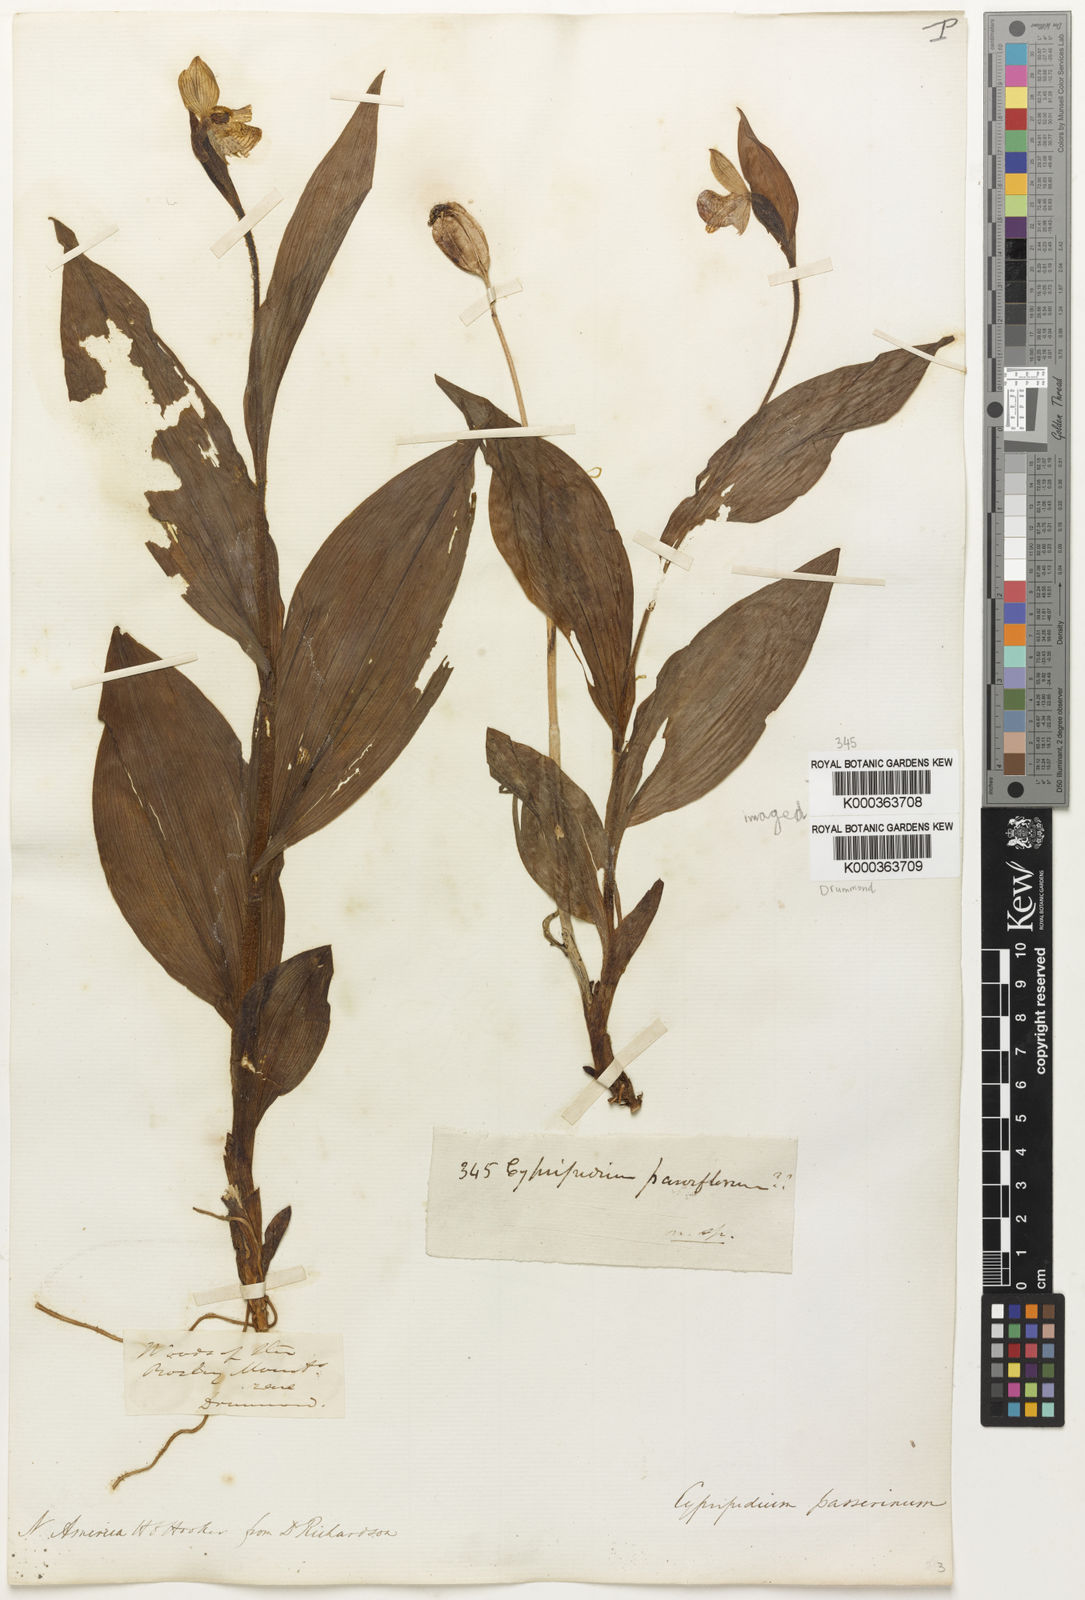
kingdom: Plantae
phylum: Tracheophyta
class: Liliopsida
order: Asparagales
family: Orchidaceae
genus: Cypripedium
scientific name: Cypripedium passerinum
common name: Sparrow's-egg lady's-slipper
